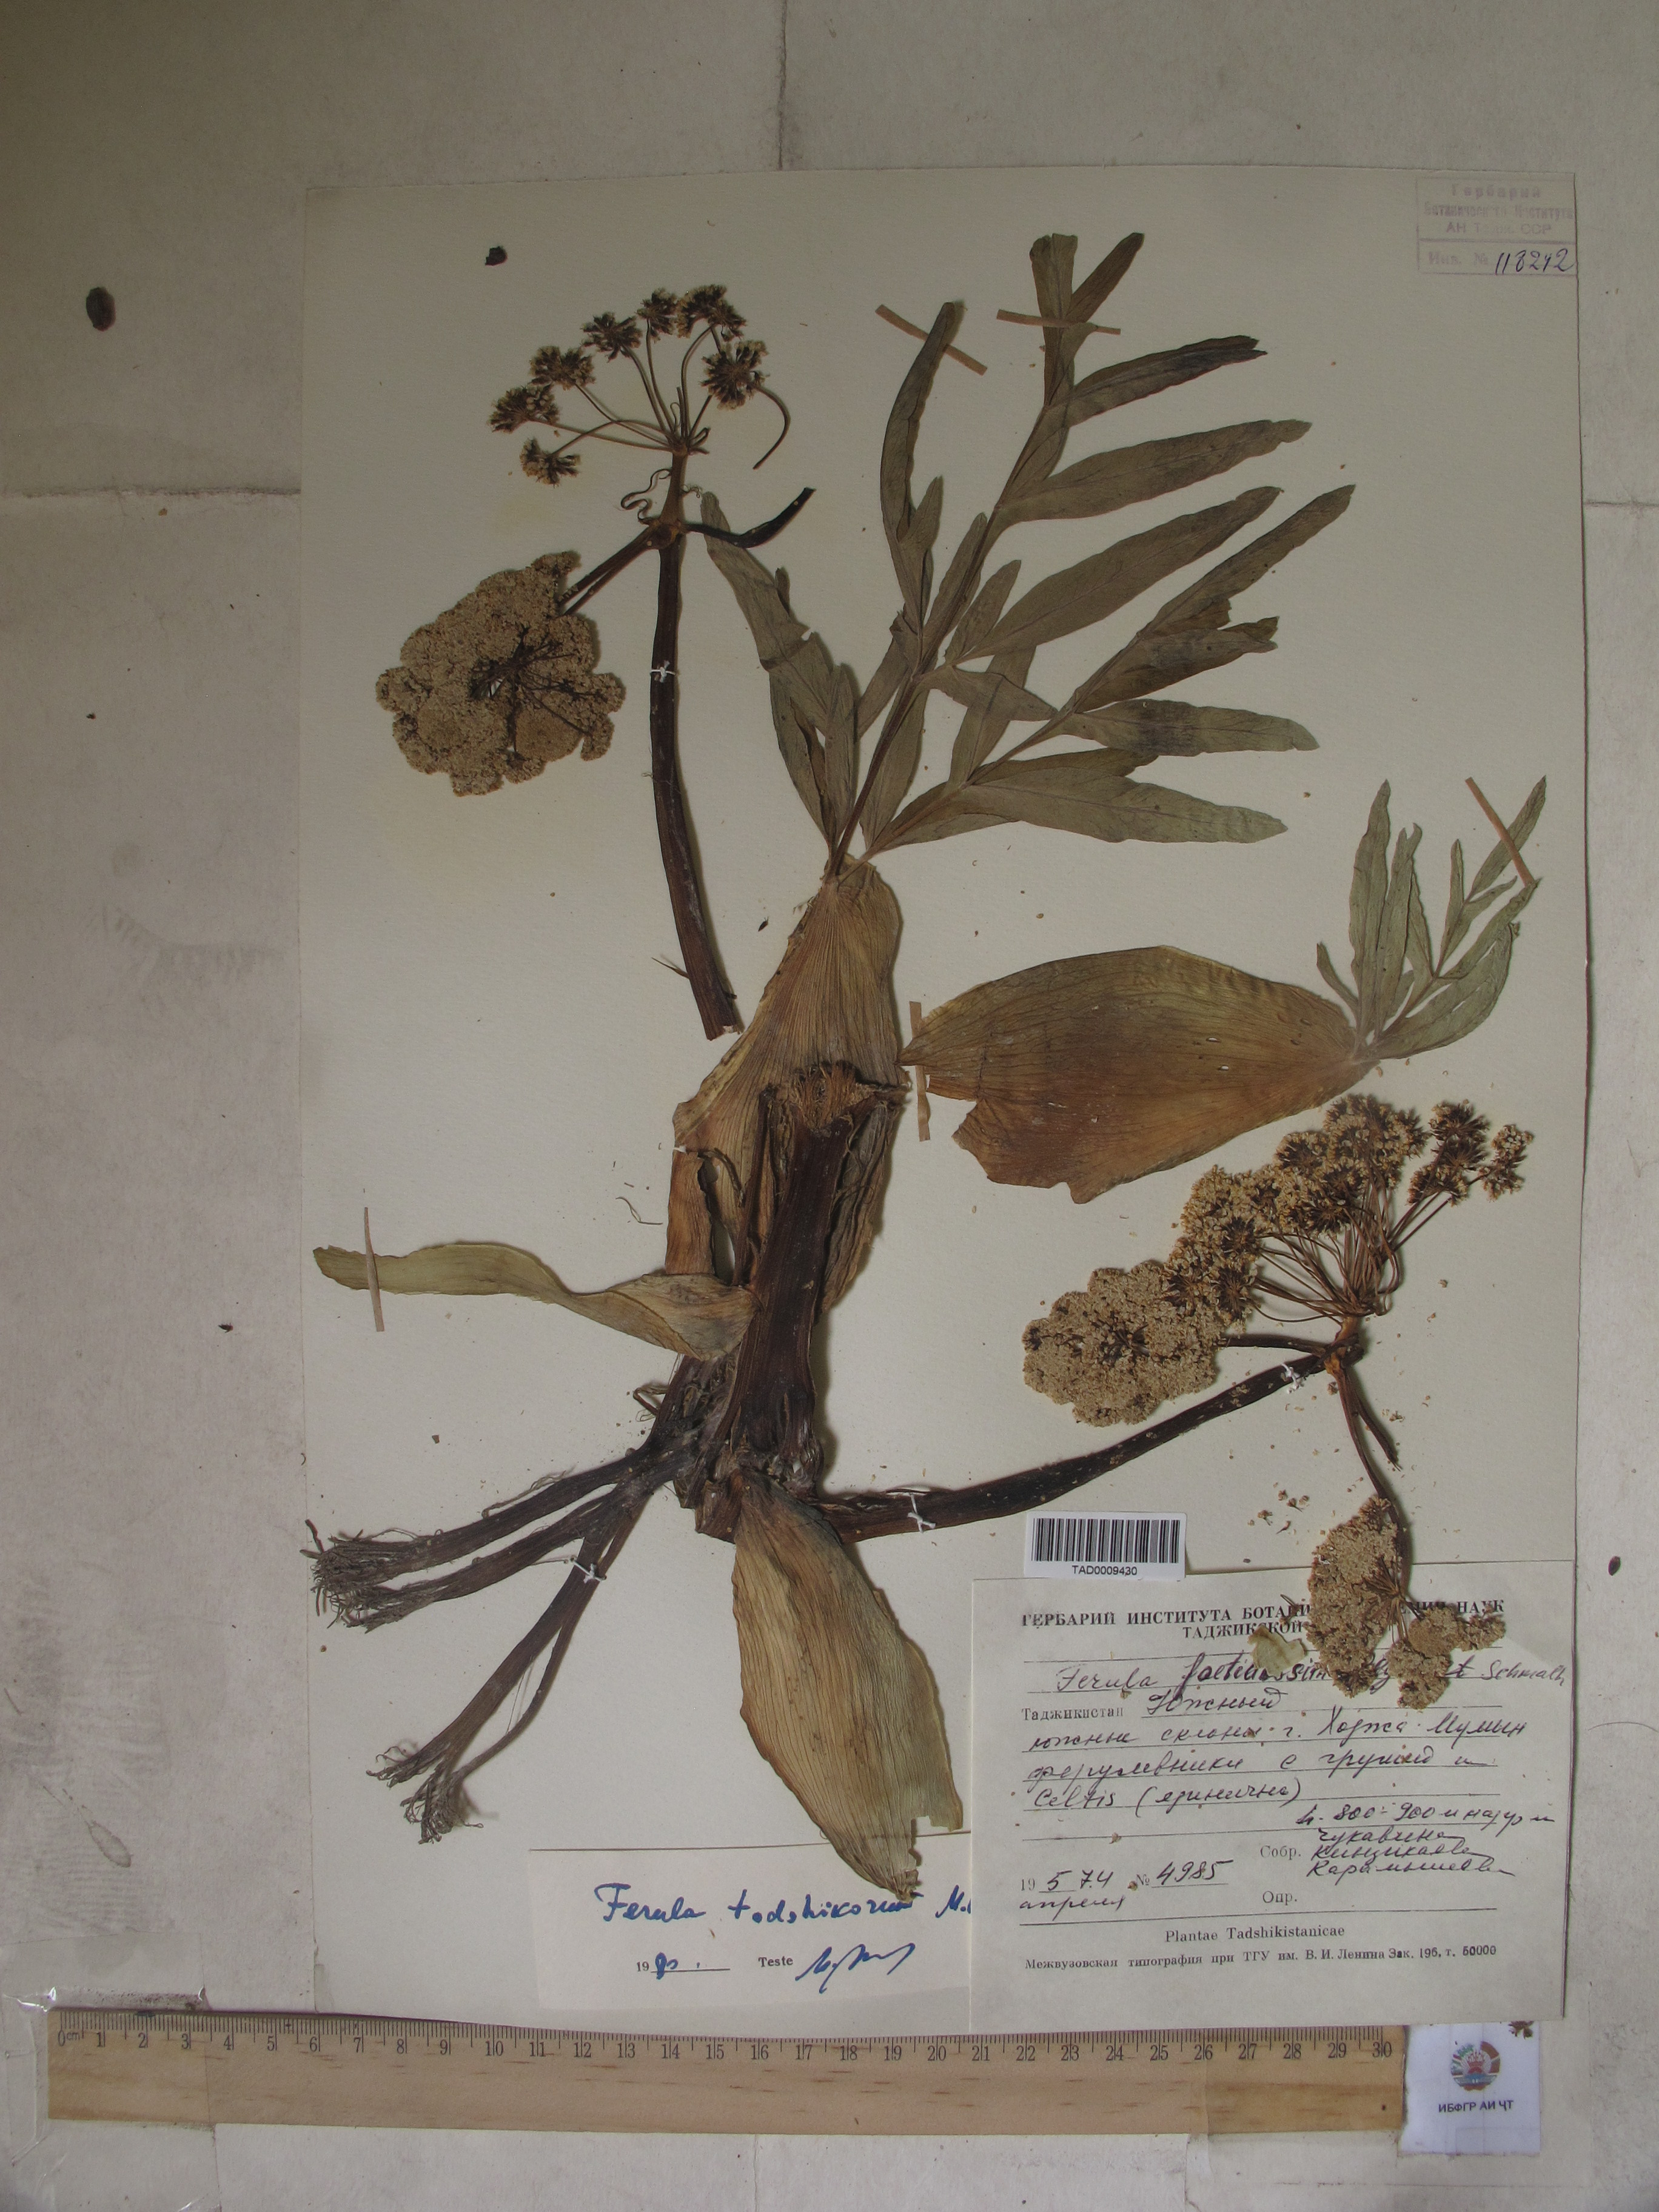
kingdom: Plantae
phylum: Tracheophyta
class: Magnoliopsida
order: Apiales
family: Apiaceae
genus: Ferula
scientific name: Ferula tadshikorum
